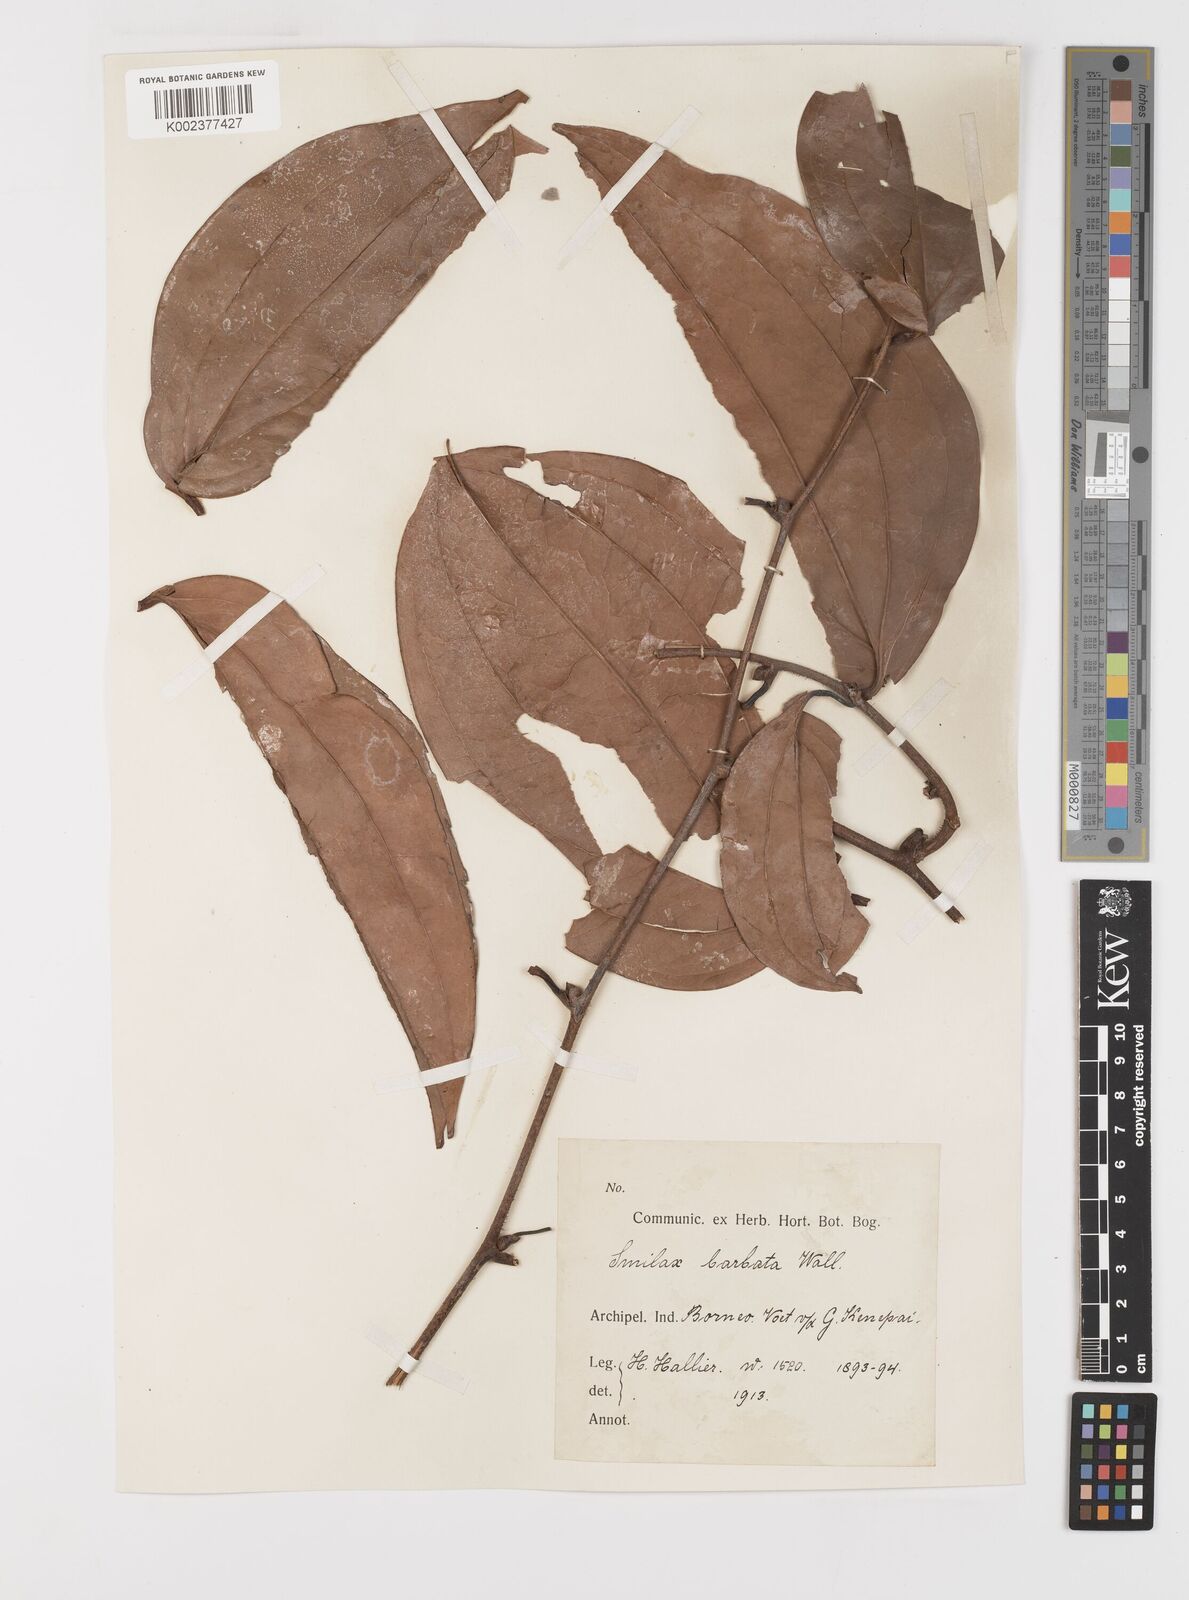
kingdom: Plantae
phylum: Tracheophyta
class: Liliopsida
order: Liliales
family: Smilacaceae
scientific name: Smilacaceae
